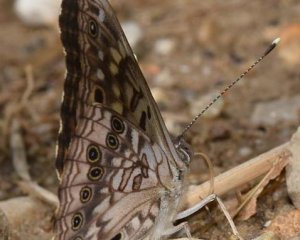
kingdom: Animalia
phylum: Arthropoda
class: Insecta
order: Lepidoptera
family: Nymphalidae
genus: Asterocampa
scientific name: Asterocampa celtis
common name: Hackberry Emperor
